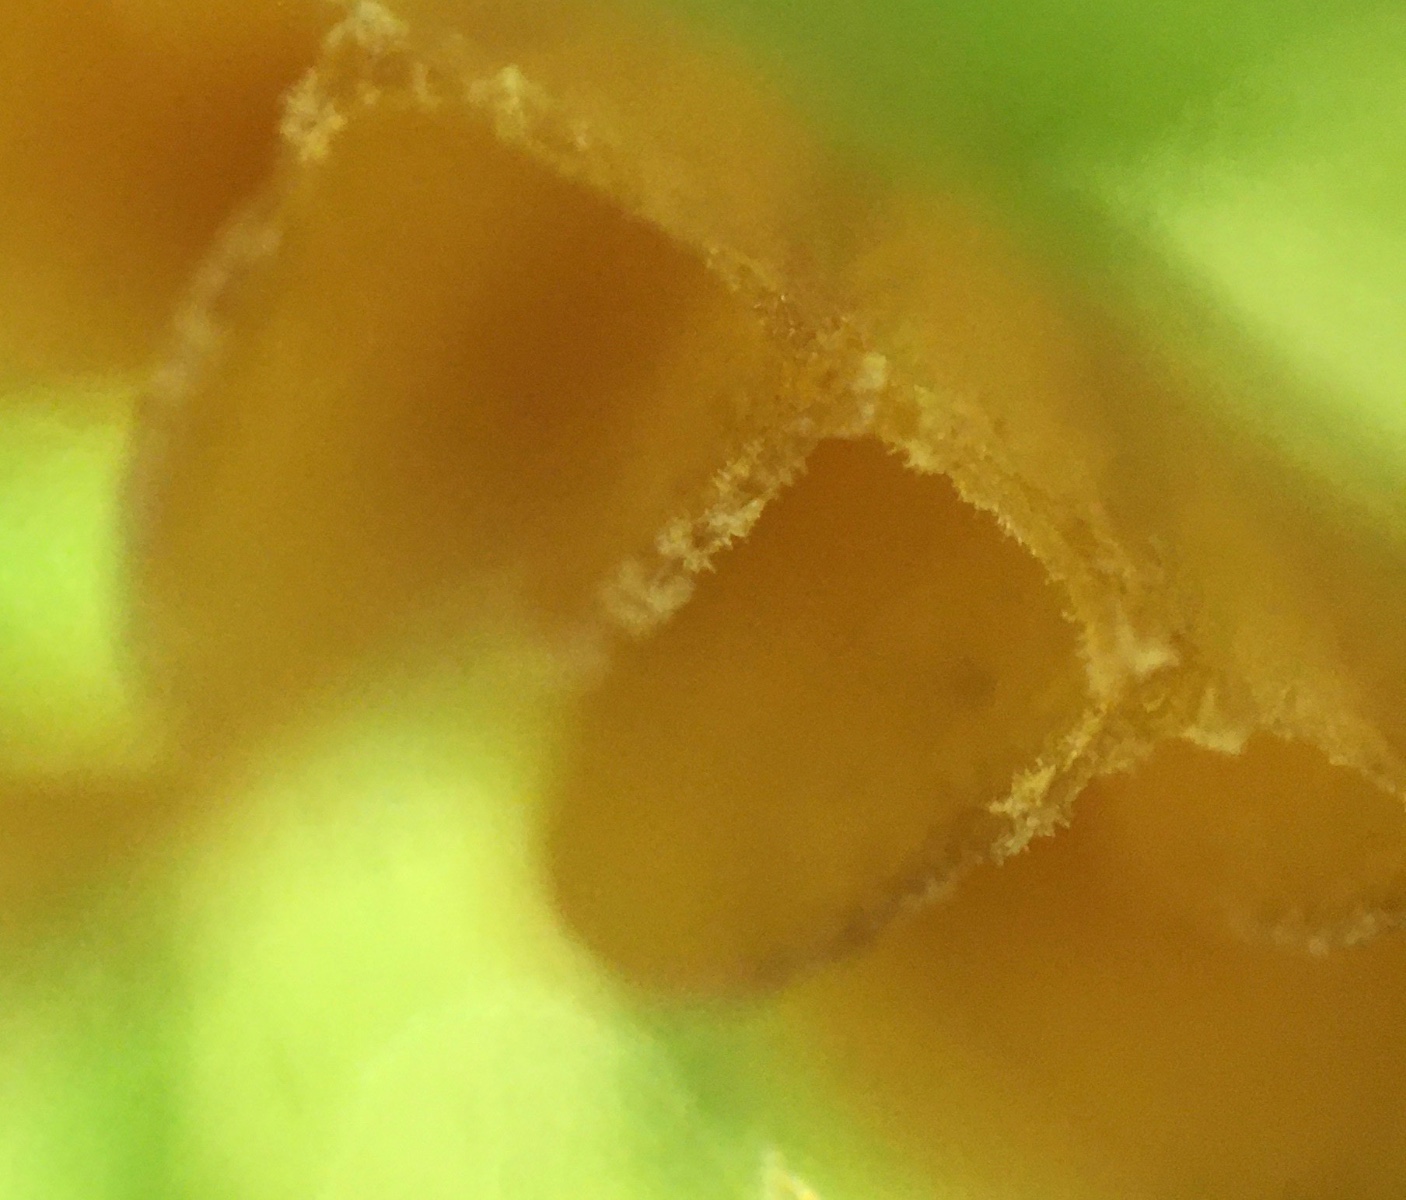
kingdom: Fungi
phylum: Basidiomycota
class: Agaricomycetes
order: Agaricales
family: Hymenogastraceae
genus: Galerina
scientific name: Galerina
